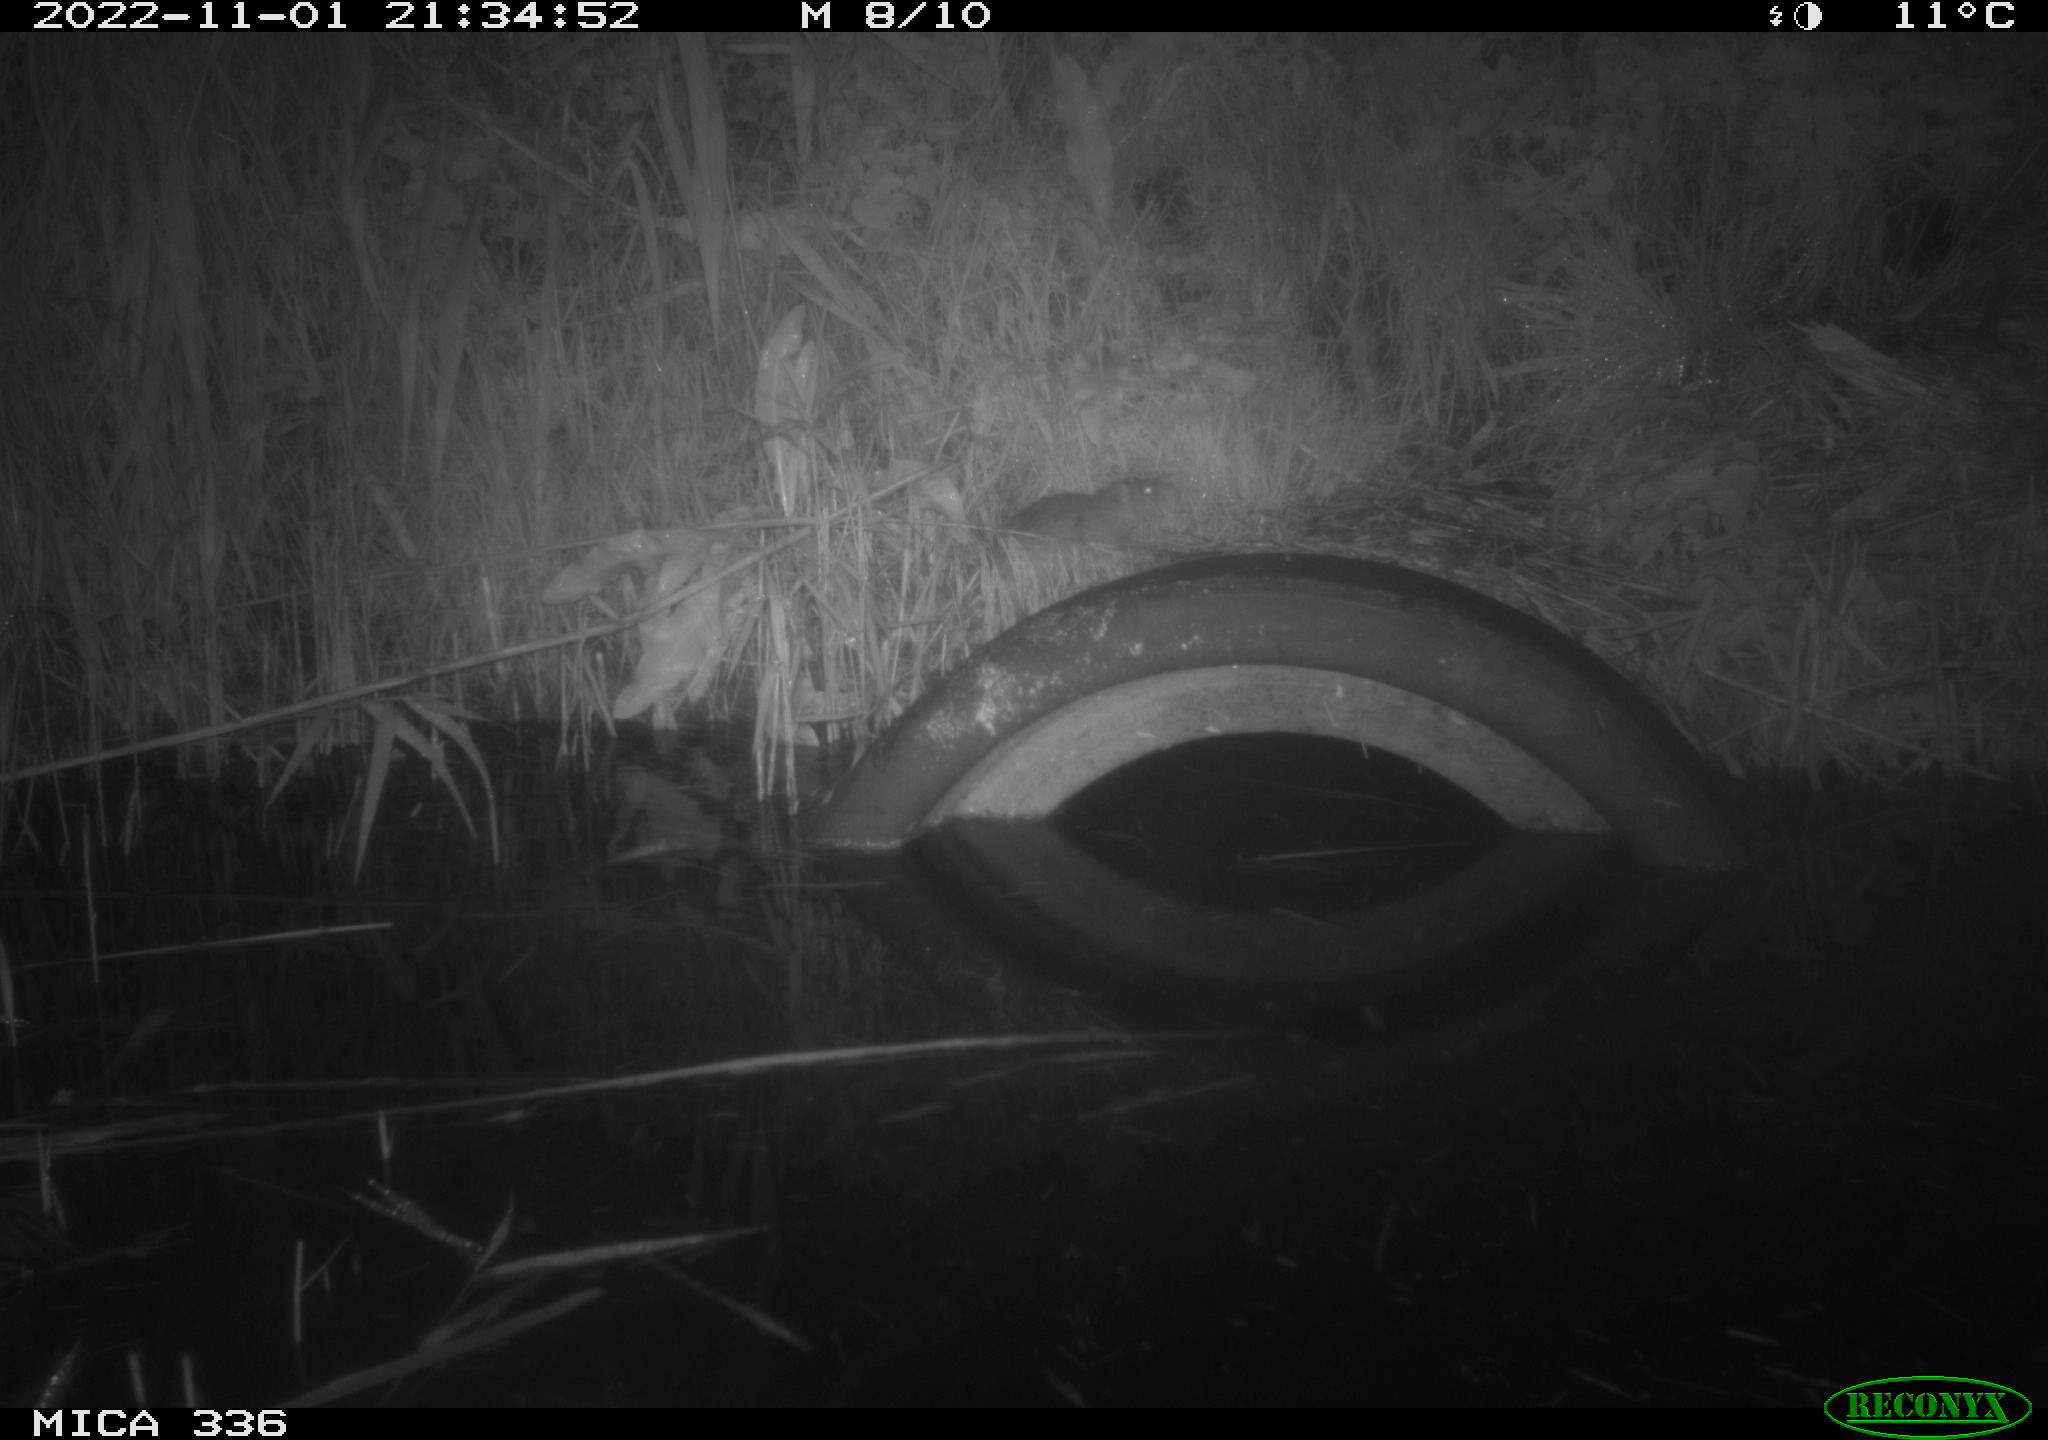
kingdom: Animalia
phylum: Chordata
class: Mammalia
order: Rodentia
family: Muridae
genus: Rattus
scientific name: Rattus norvegicus
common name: Brown rat
